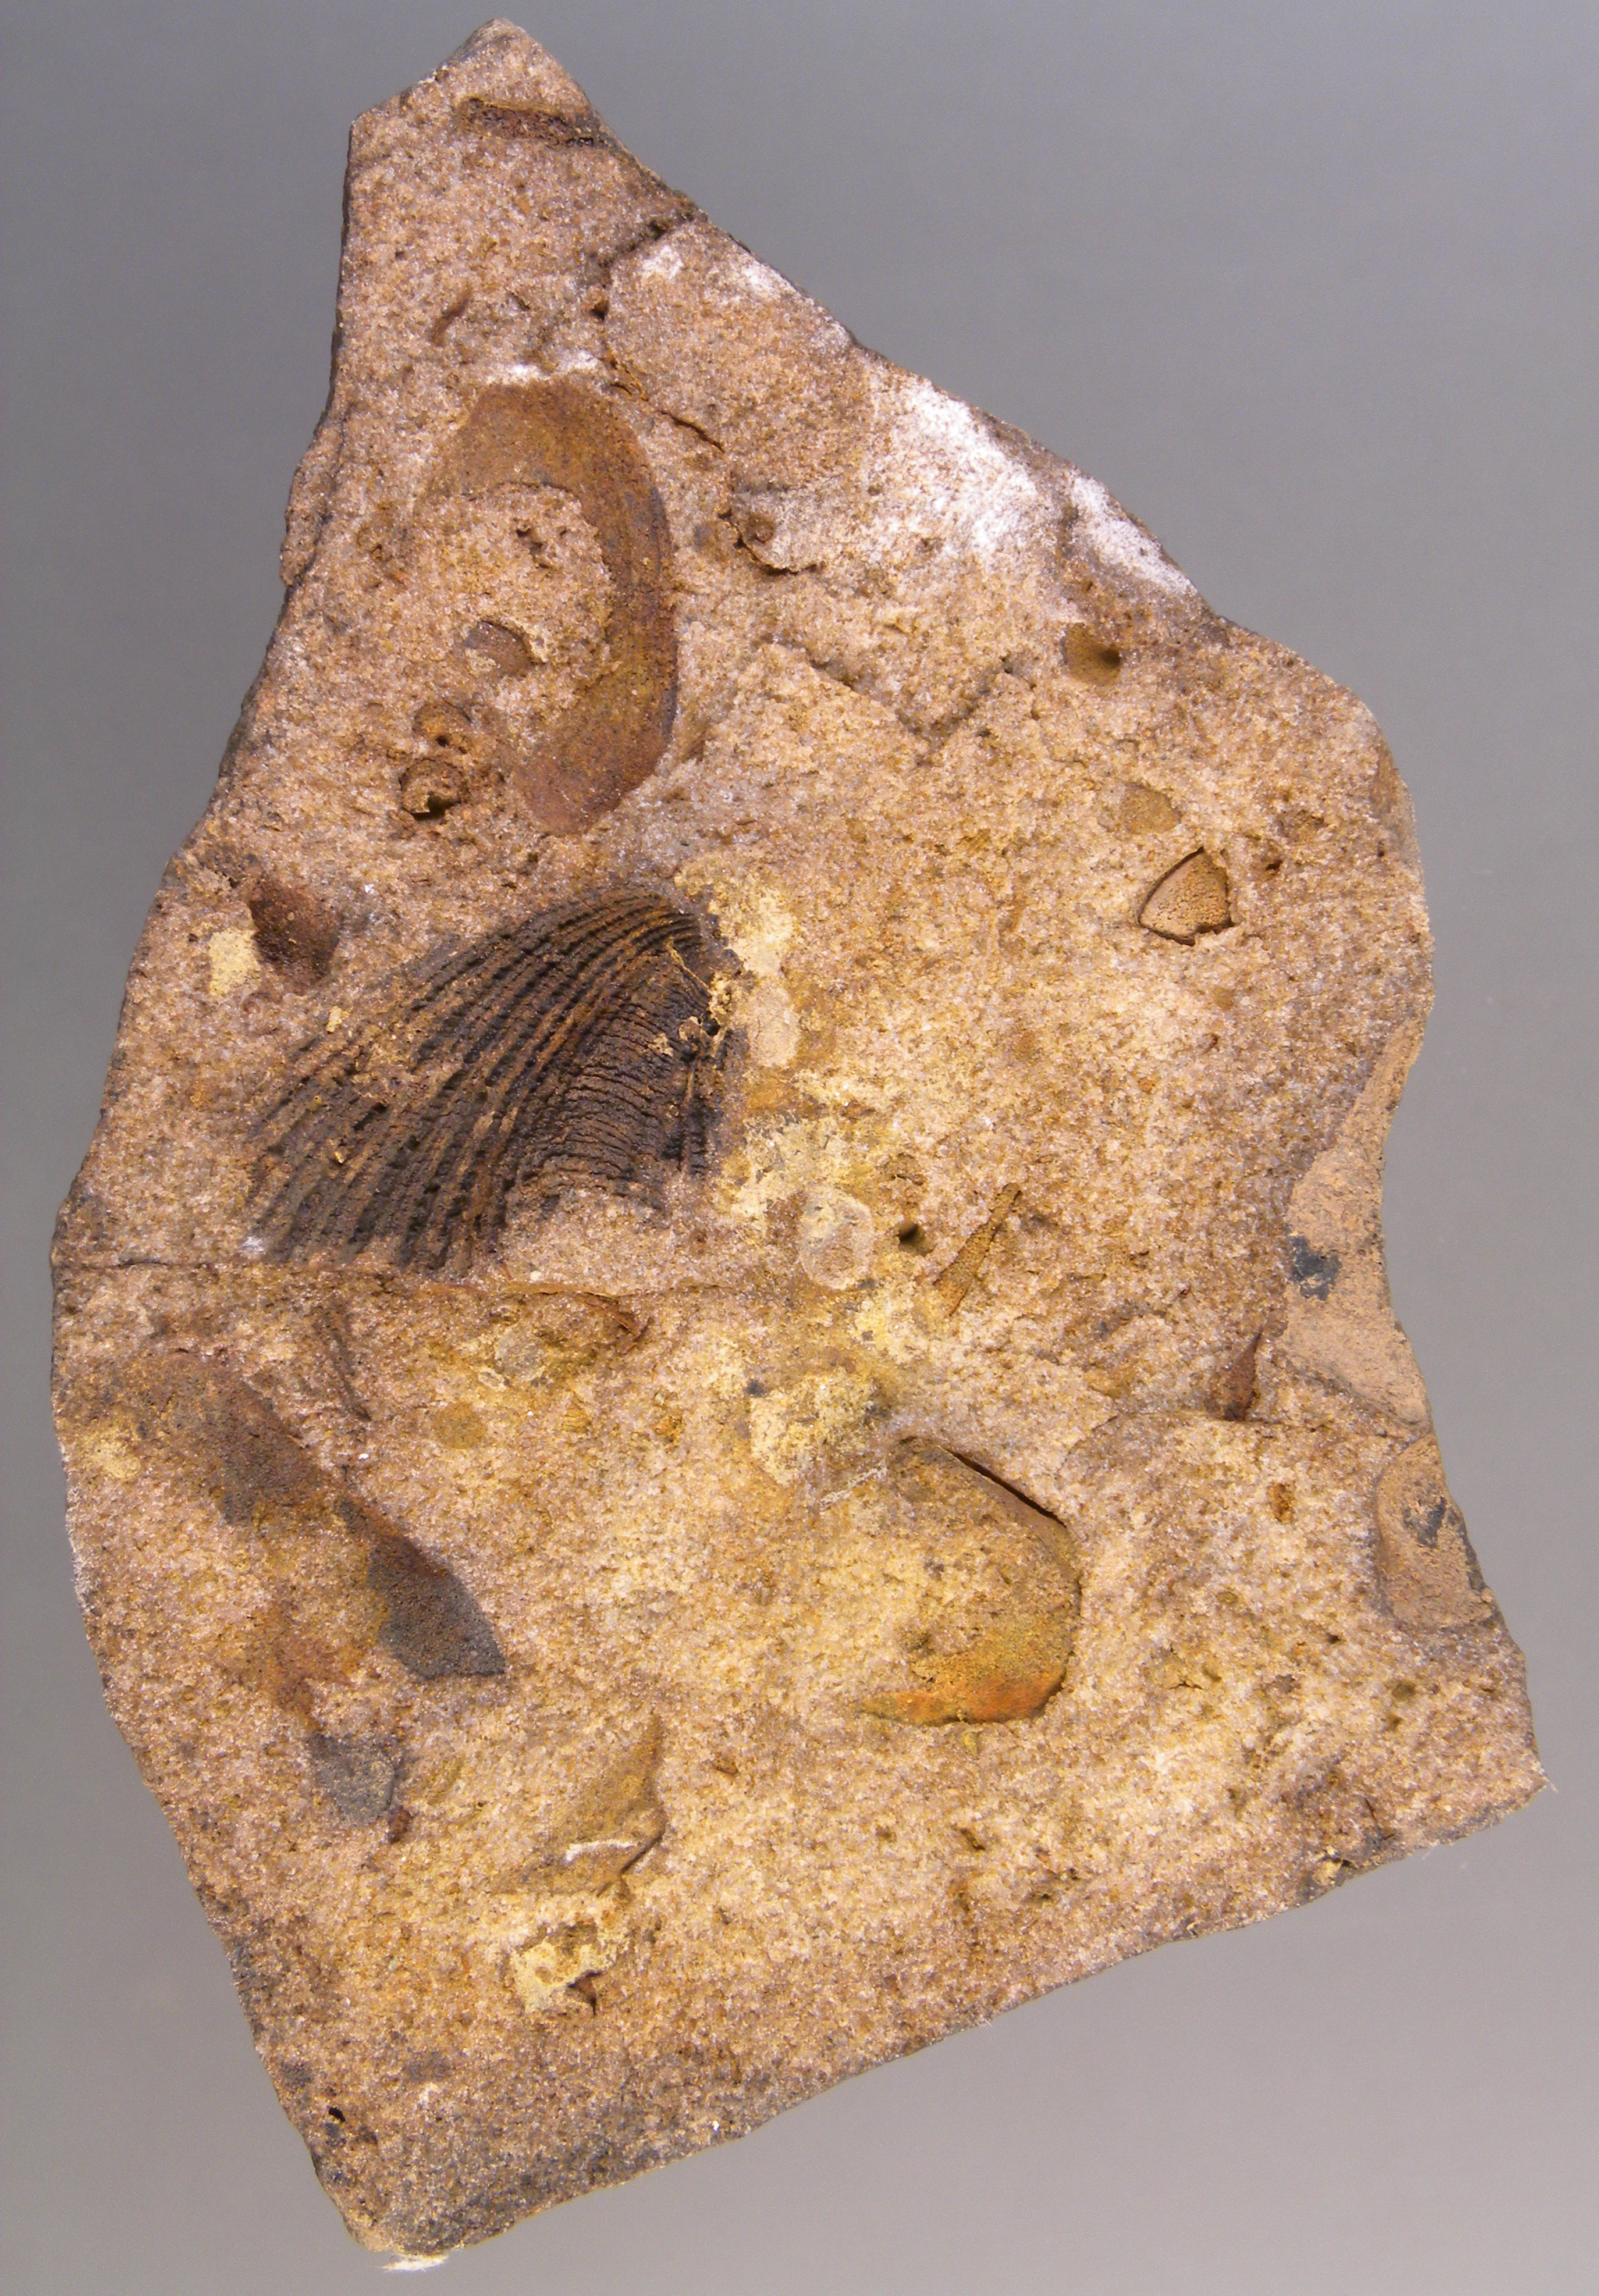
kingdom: Animalia
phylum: Mollusca
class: Bivalvia
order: Ostreida
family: Pterineidae
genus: Ptychopteria
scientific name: Ptychopteria
